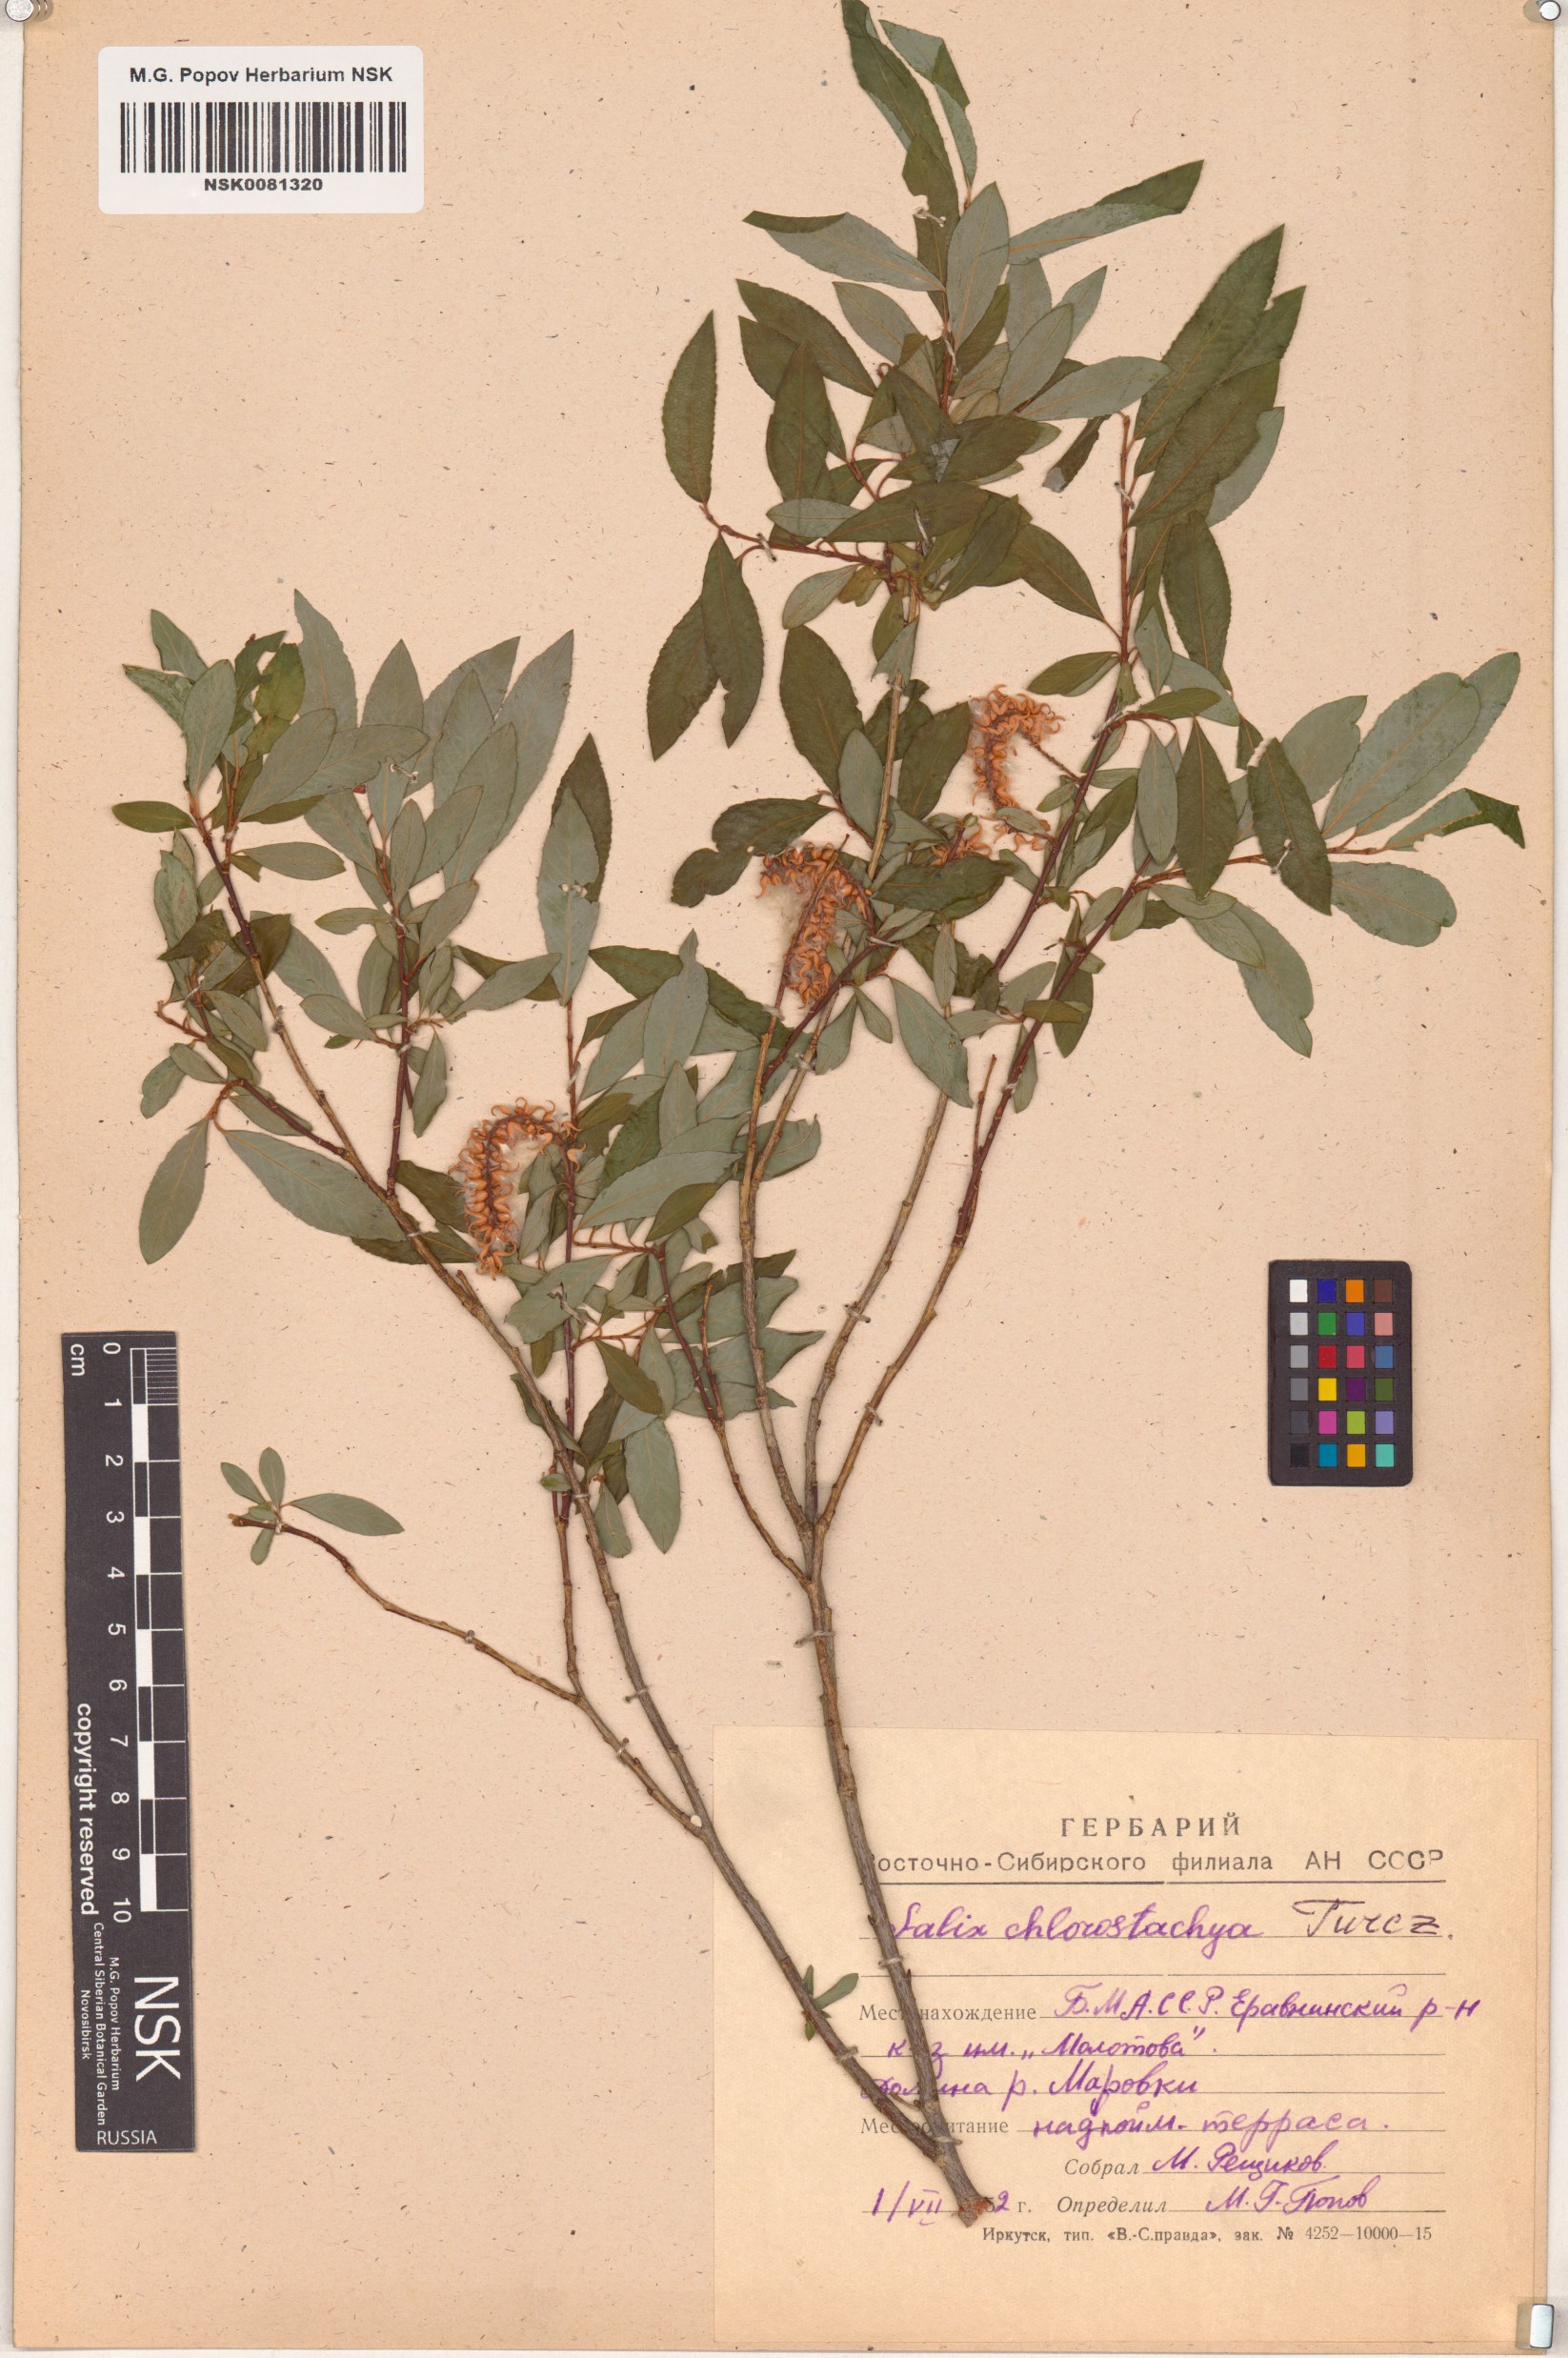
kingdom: Plantae
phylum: Tracheophyta
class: Magnoliopsida
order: Malpighiales
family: Salicaceae
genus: Salix
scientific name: Salix rhamnifolia
